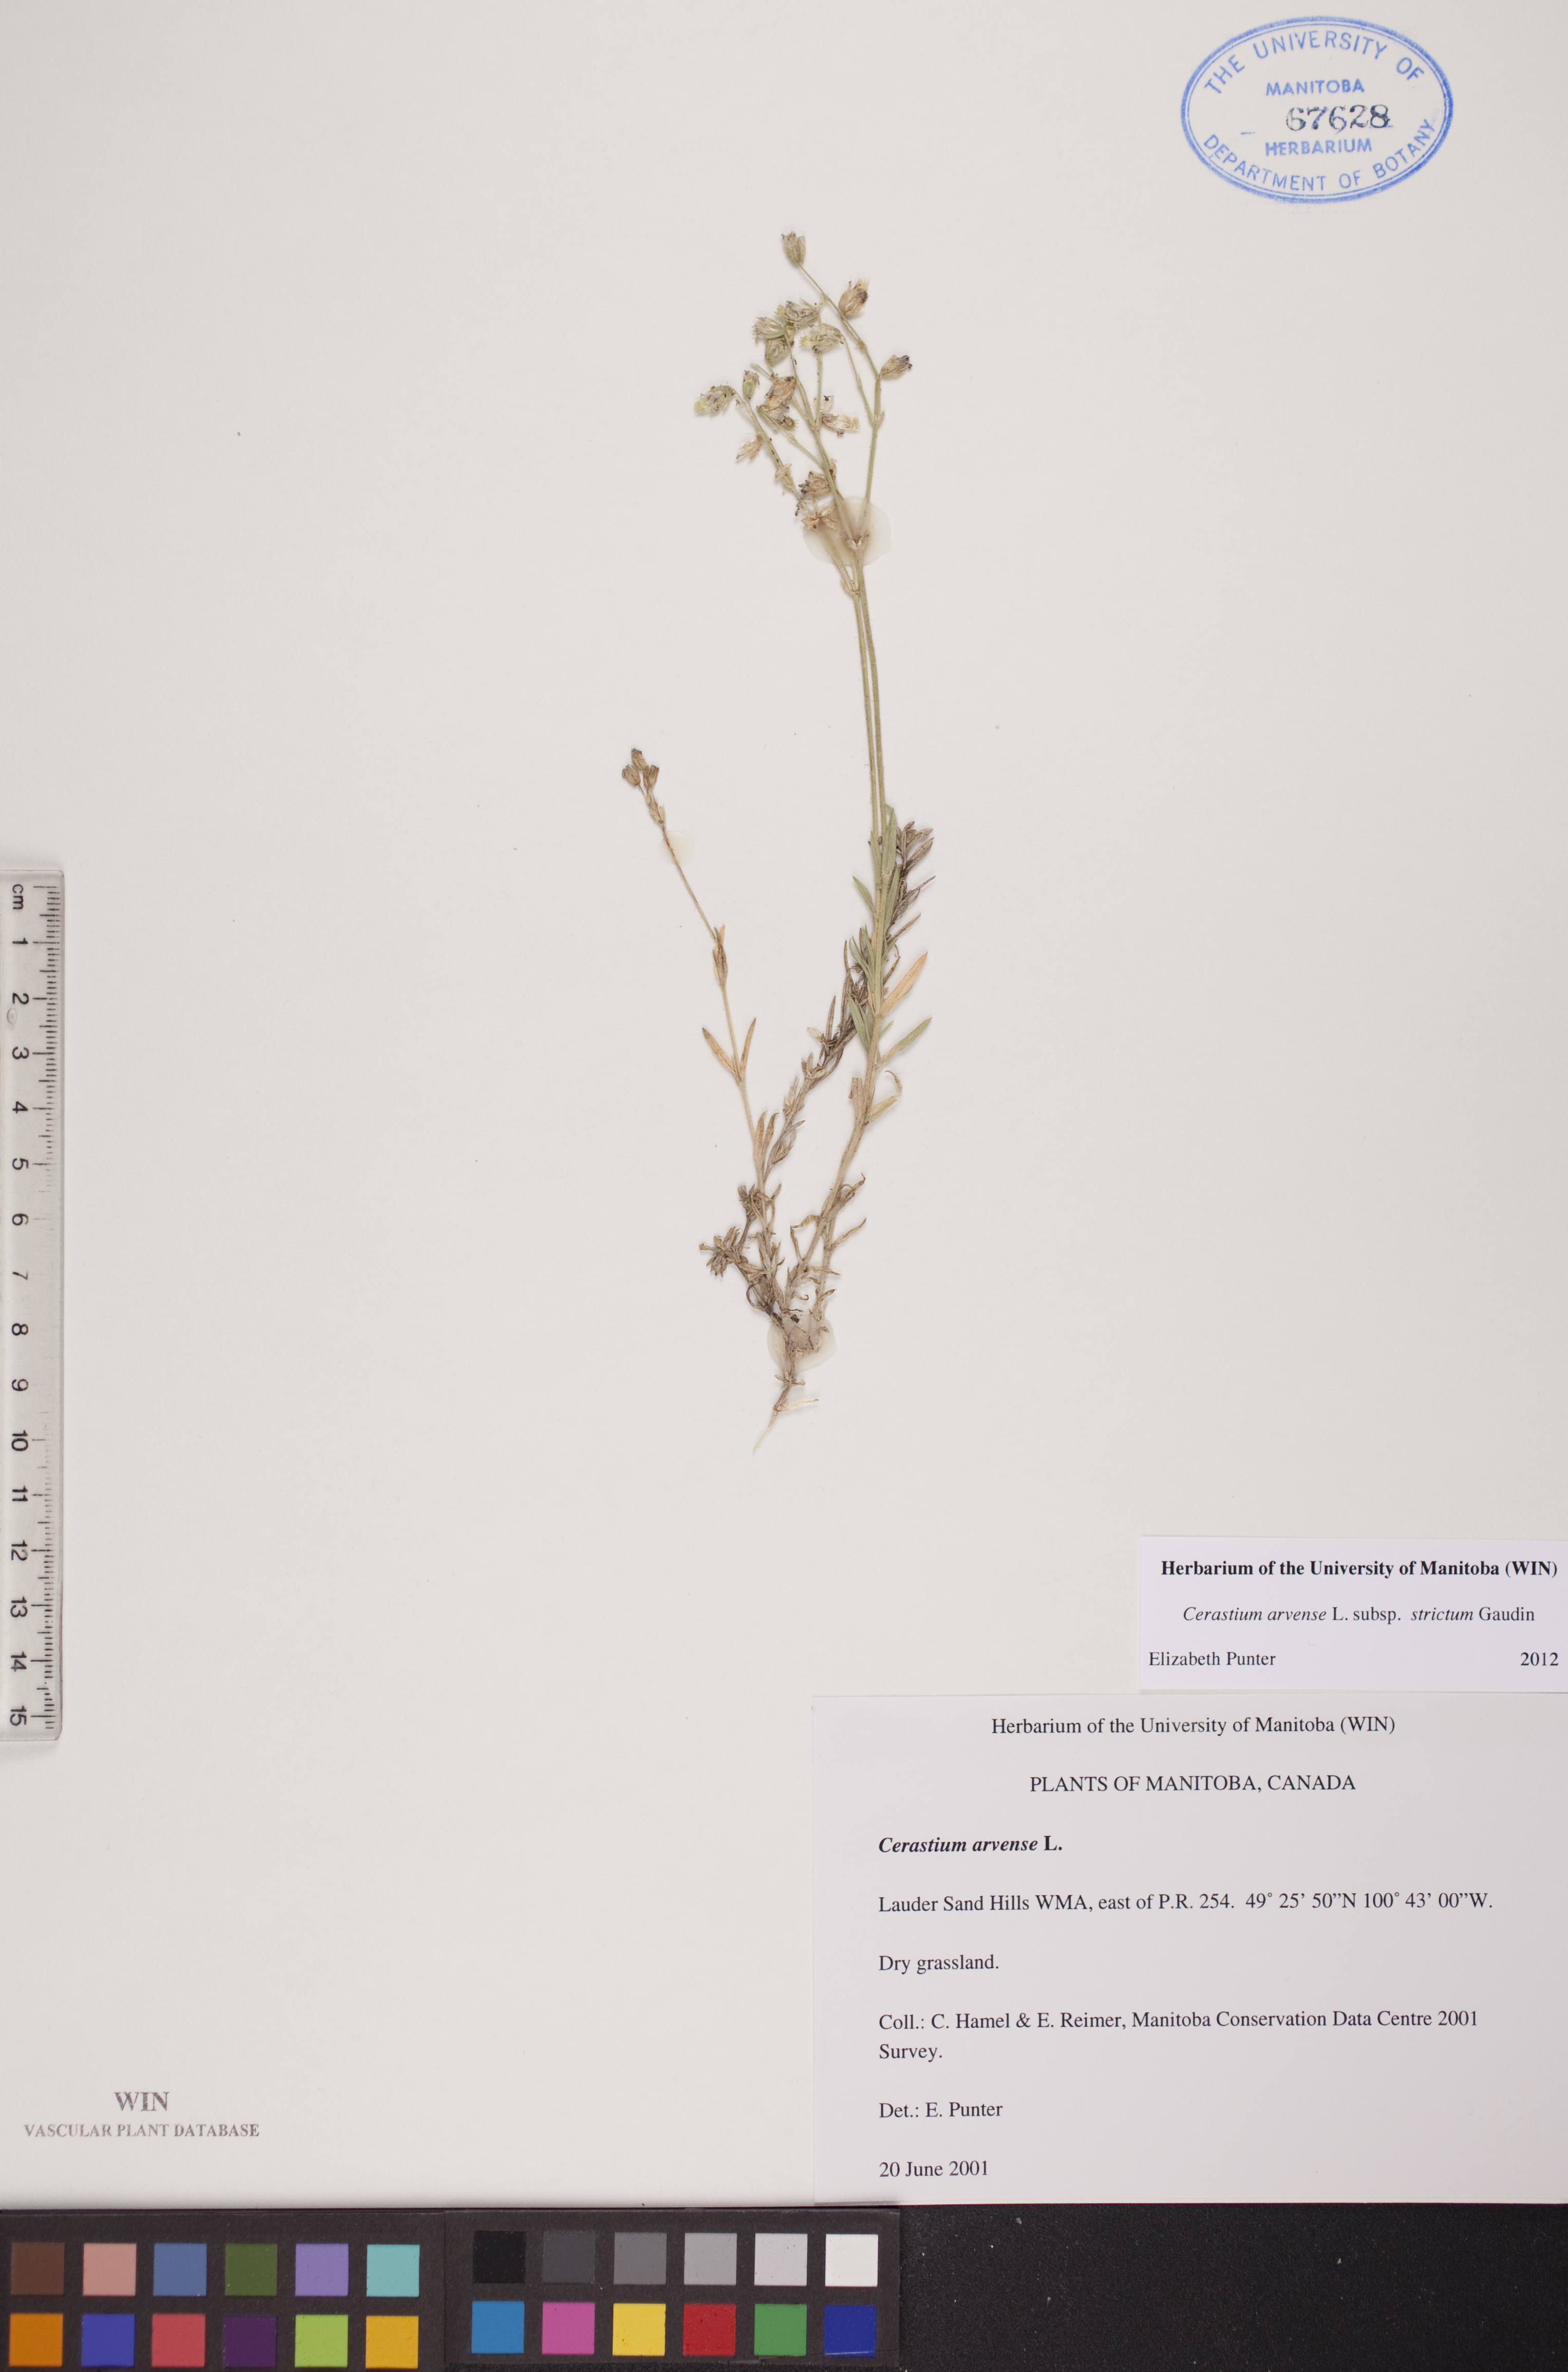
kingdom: Plantae
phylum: Tracheophyta
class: Magnoliopsida
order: Caryophyllales
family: Caryophyllaceae
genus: Cerastium
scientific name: Cerastium elongatum
